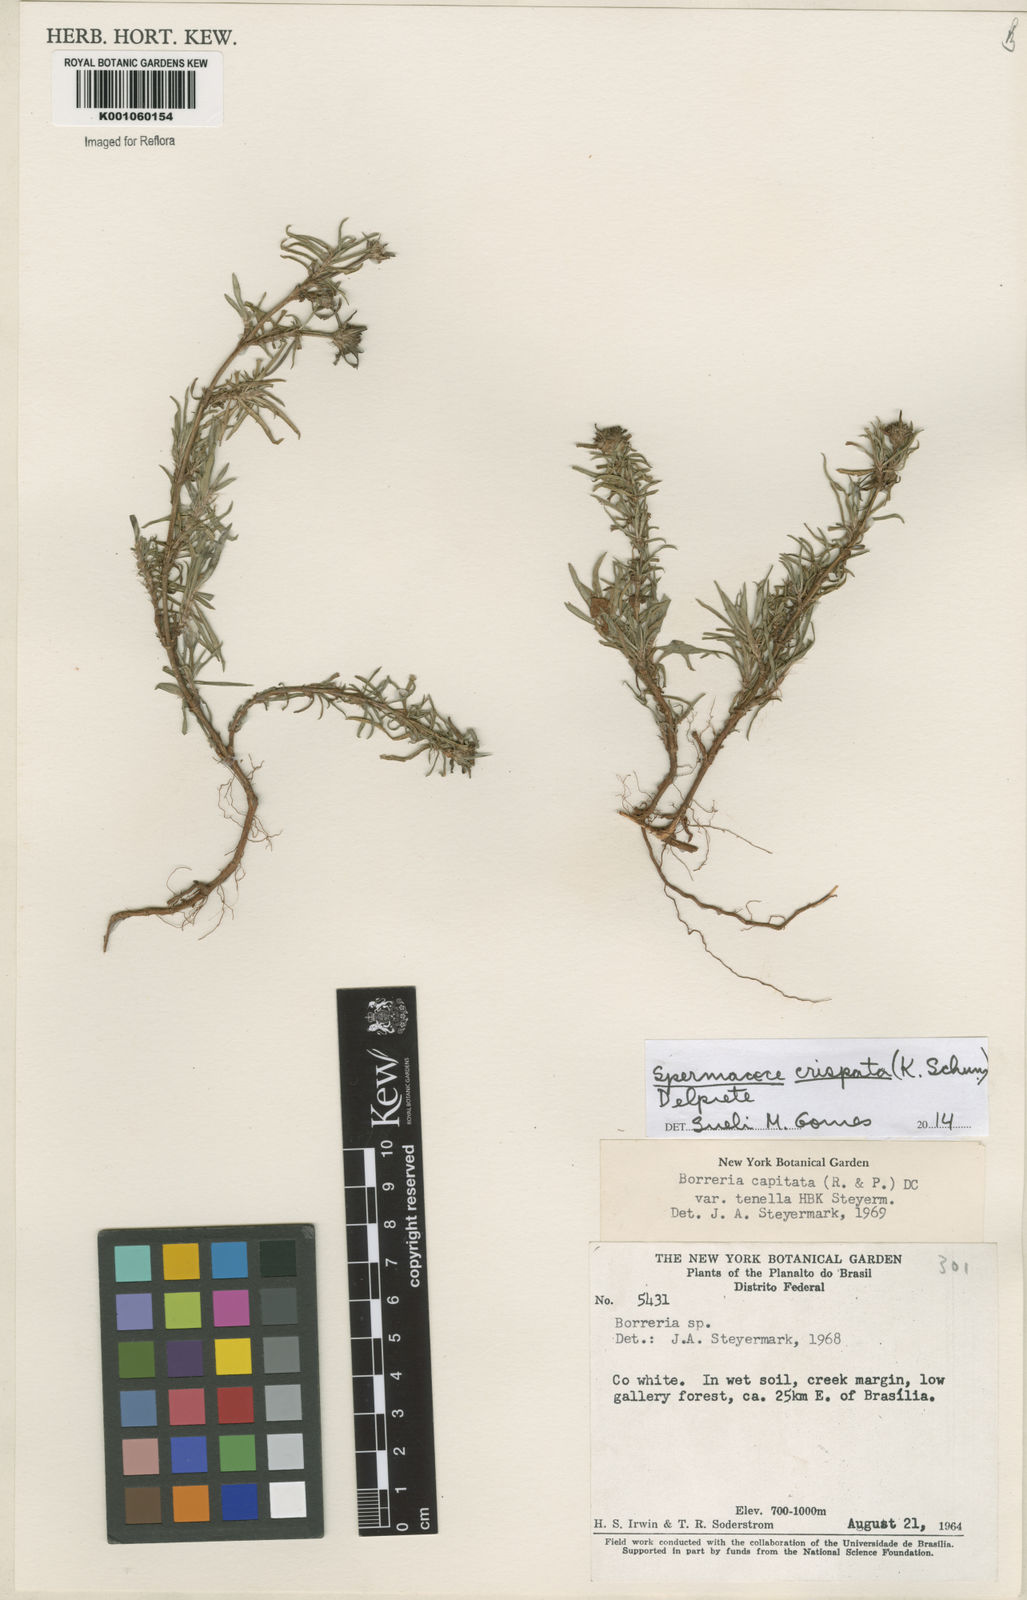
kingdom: Plantae
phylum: Tracheophyta
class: Magnoliopsida
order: Gentianales
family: Rubiaceae
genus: Spermacoce
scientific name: Spermacoce crispata
